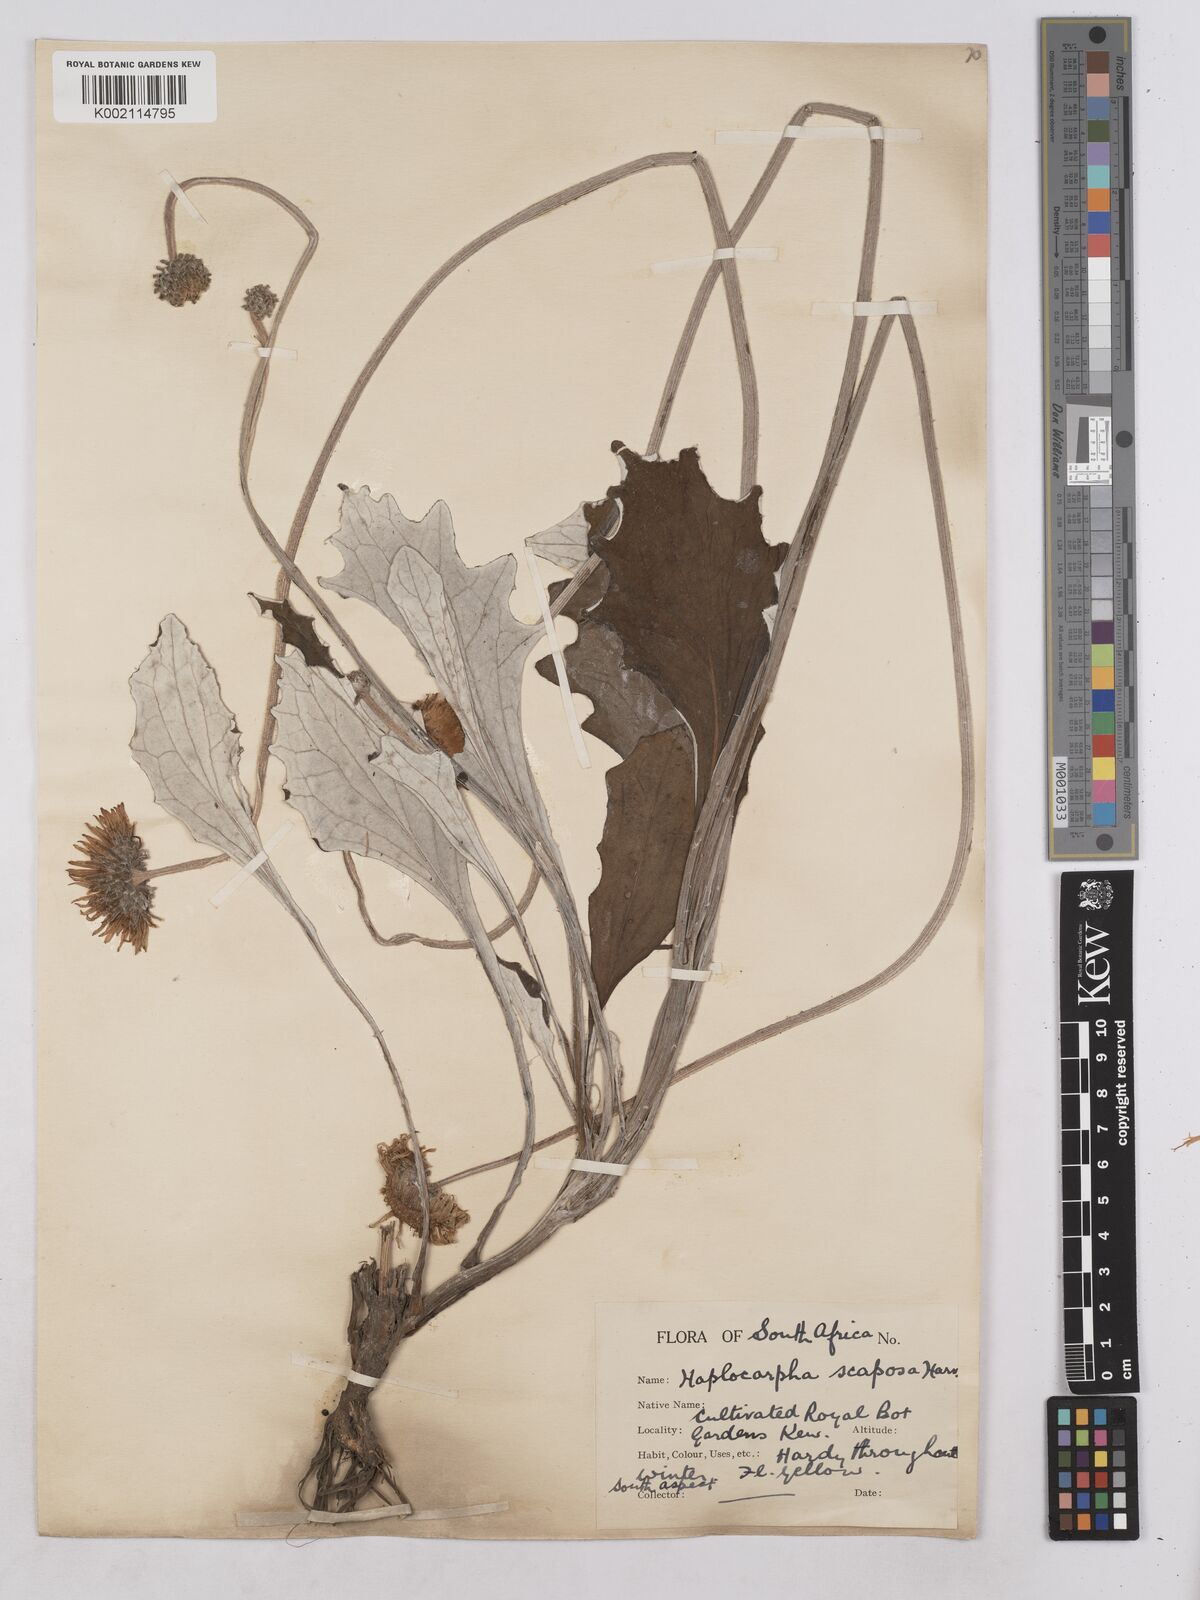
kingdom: Plantae
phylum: Tracheophyta
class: Magnoliopsida
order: Asterales
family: Asteraceae
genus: Haplocarpha
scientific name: Haplocarpha scaposa
